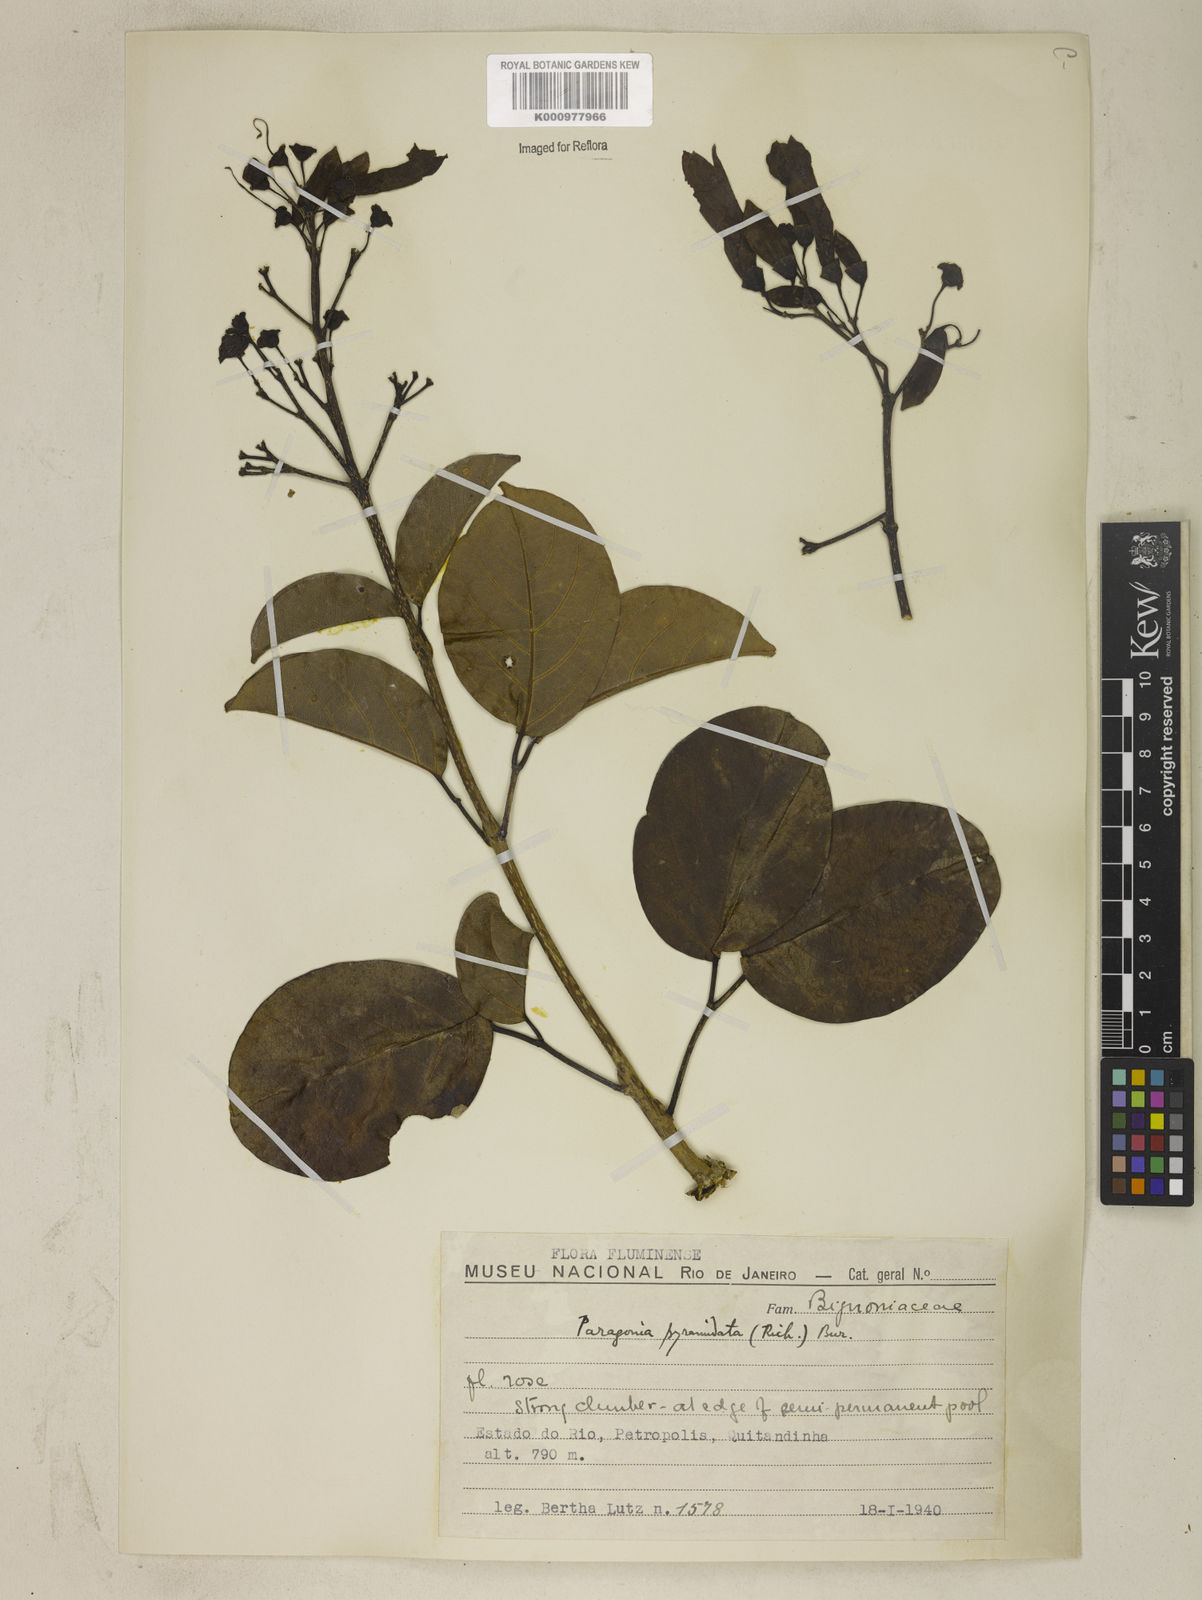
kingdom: Plantae
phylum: Tracheophyta
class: Magnoliopsida
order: Lamiales
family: Bignoniaceae
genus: Tanaecium
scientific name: Tanaecium pyramidatum
